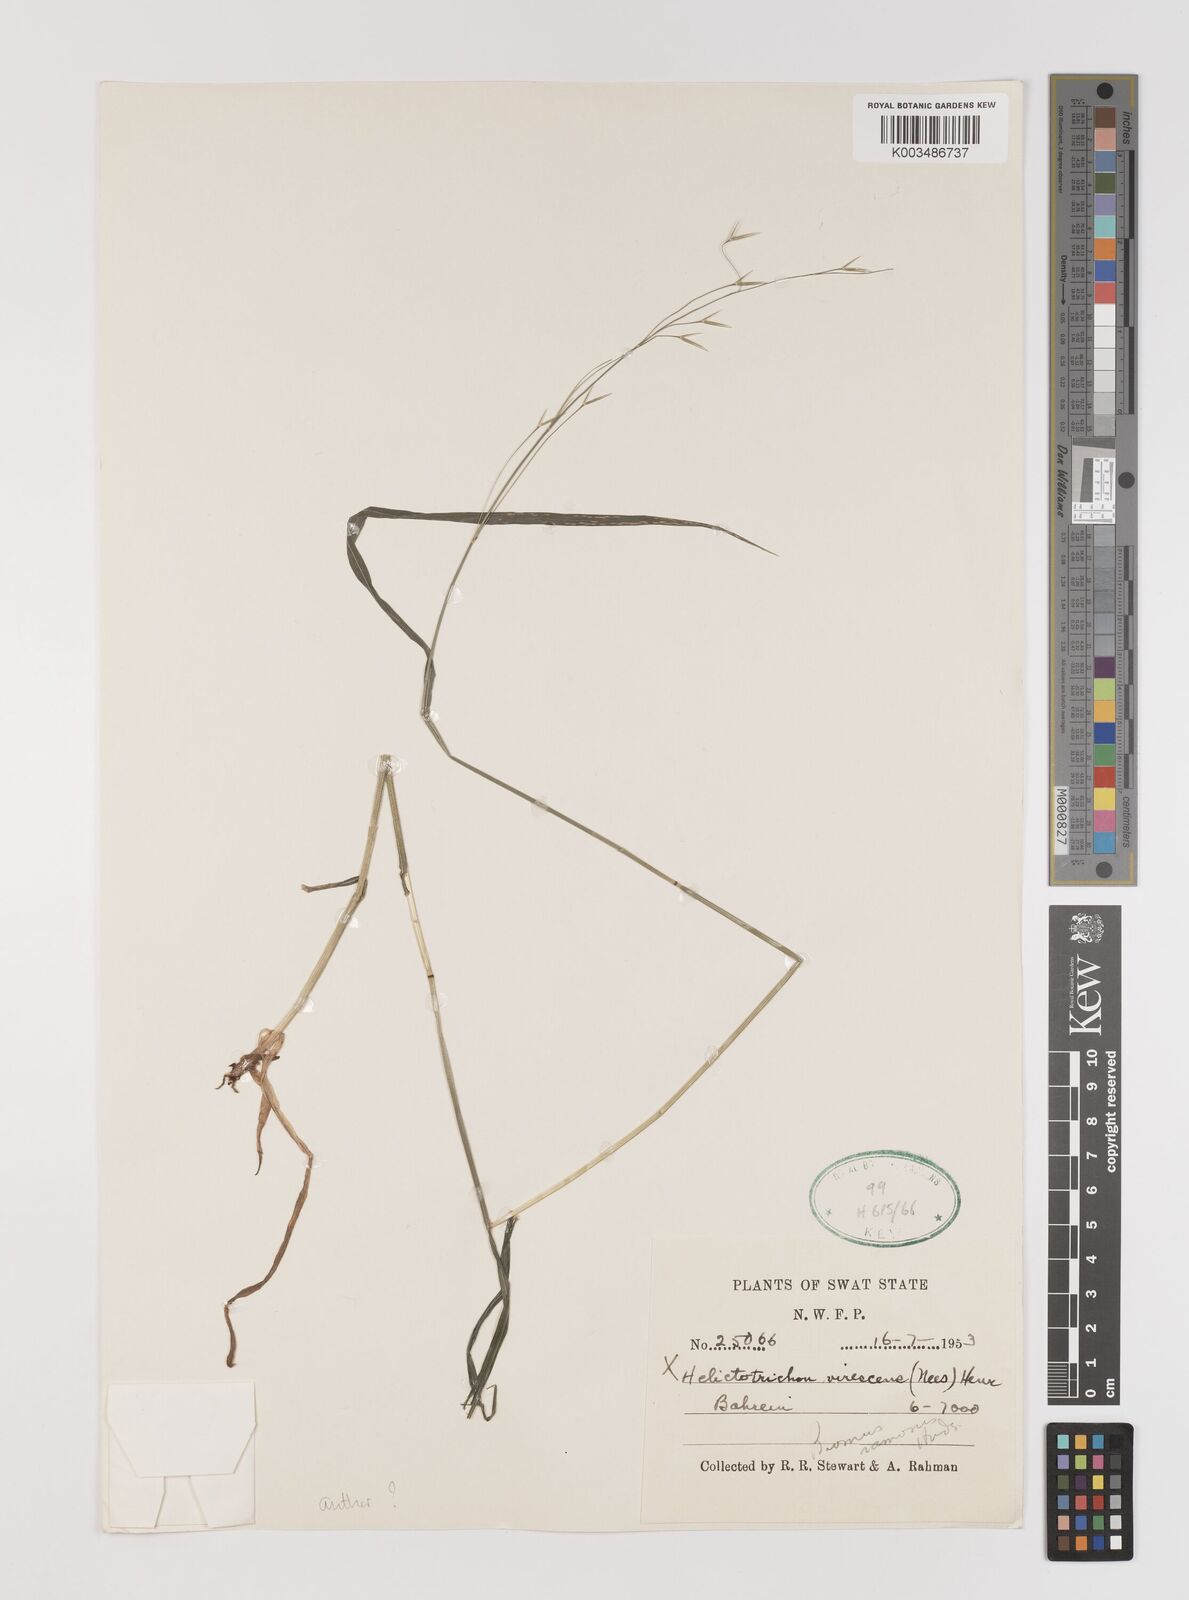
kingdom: Plantae
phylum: Tracheophyta
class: Liliopsida
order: Poales
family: Poaceae
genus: Brachypodium
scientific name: Brachypodium retusum
